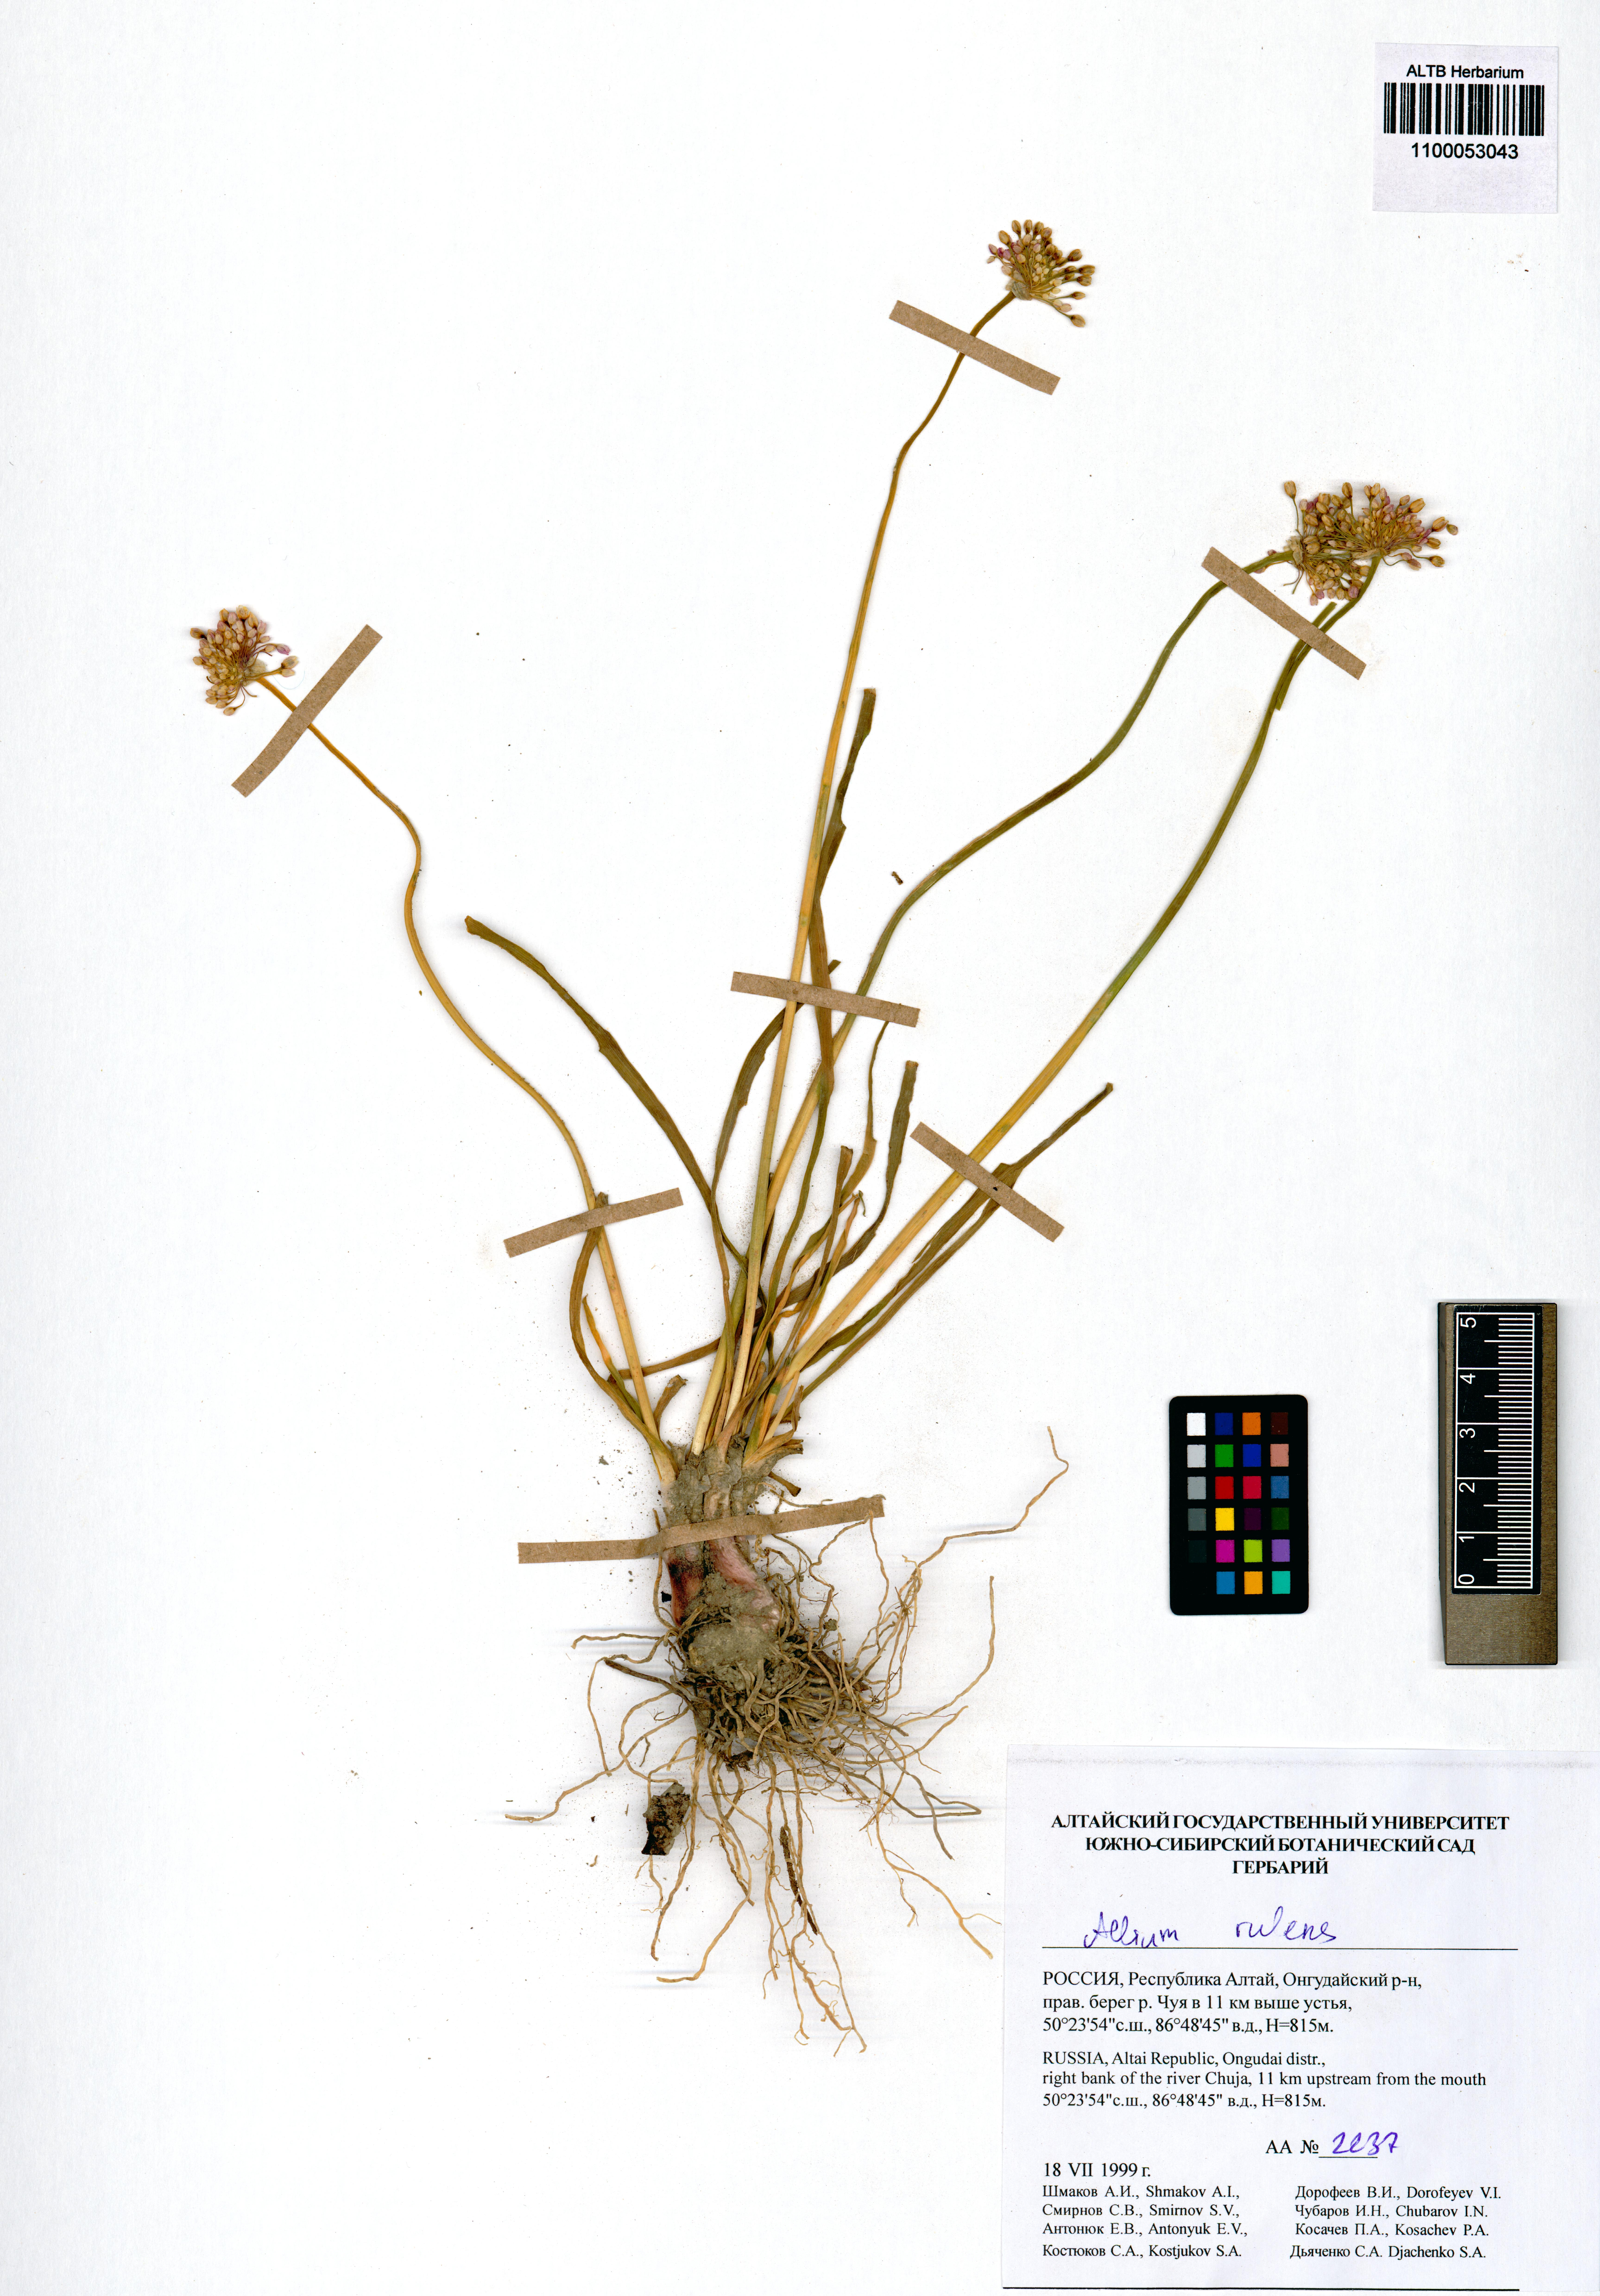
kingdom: Plantae
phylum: Tracheophyta
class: Liliopsida
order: Asparagales
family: Amaryllidaceae
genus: Allium
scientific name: Allium rubens
